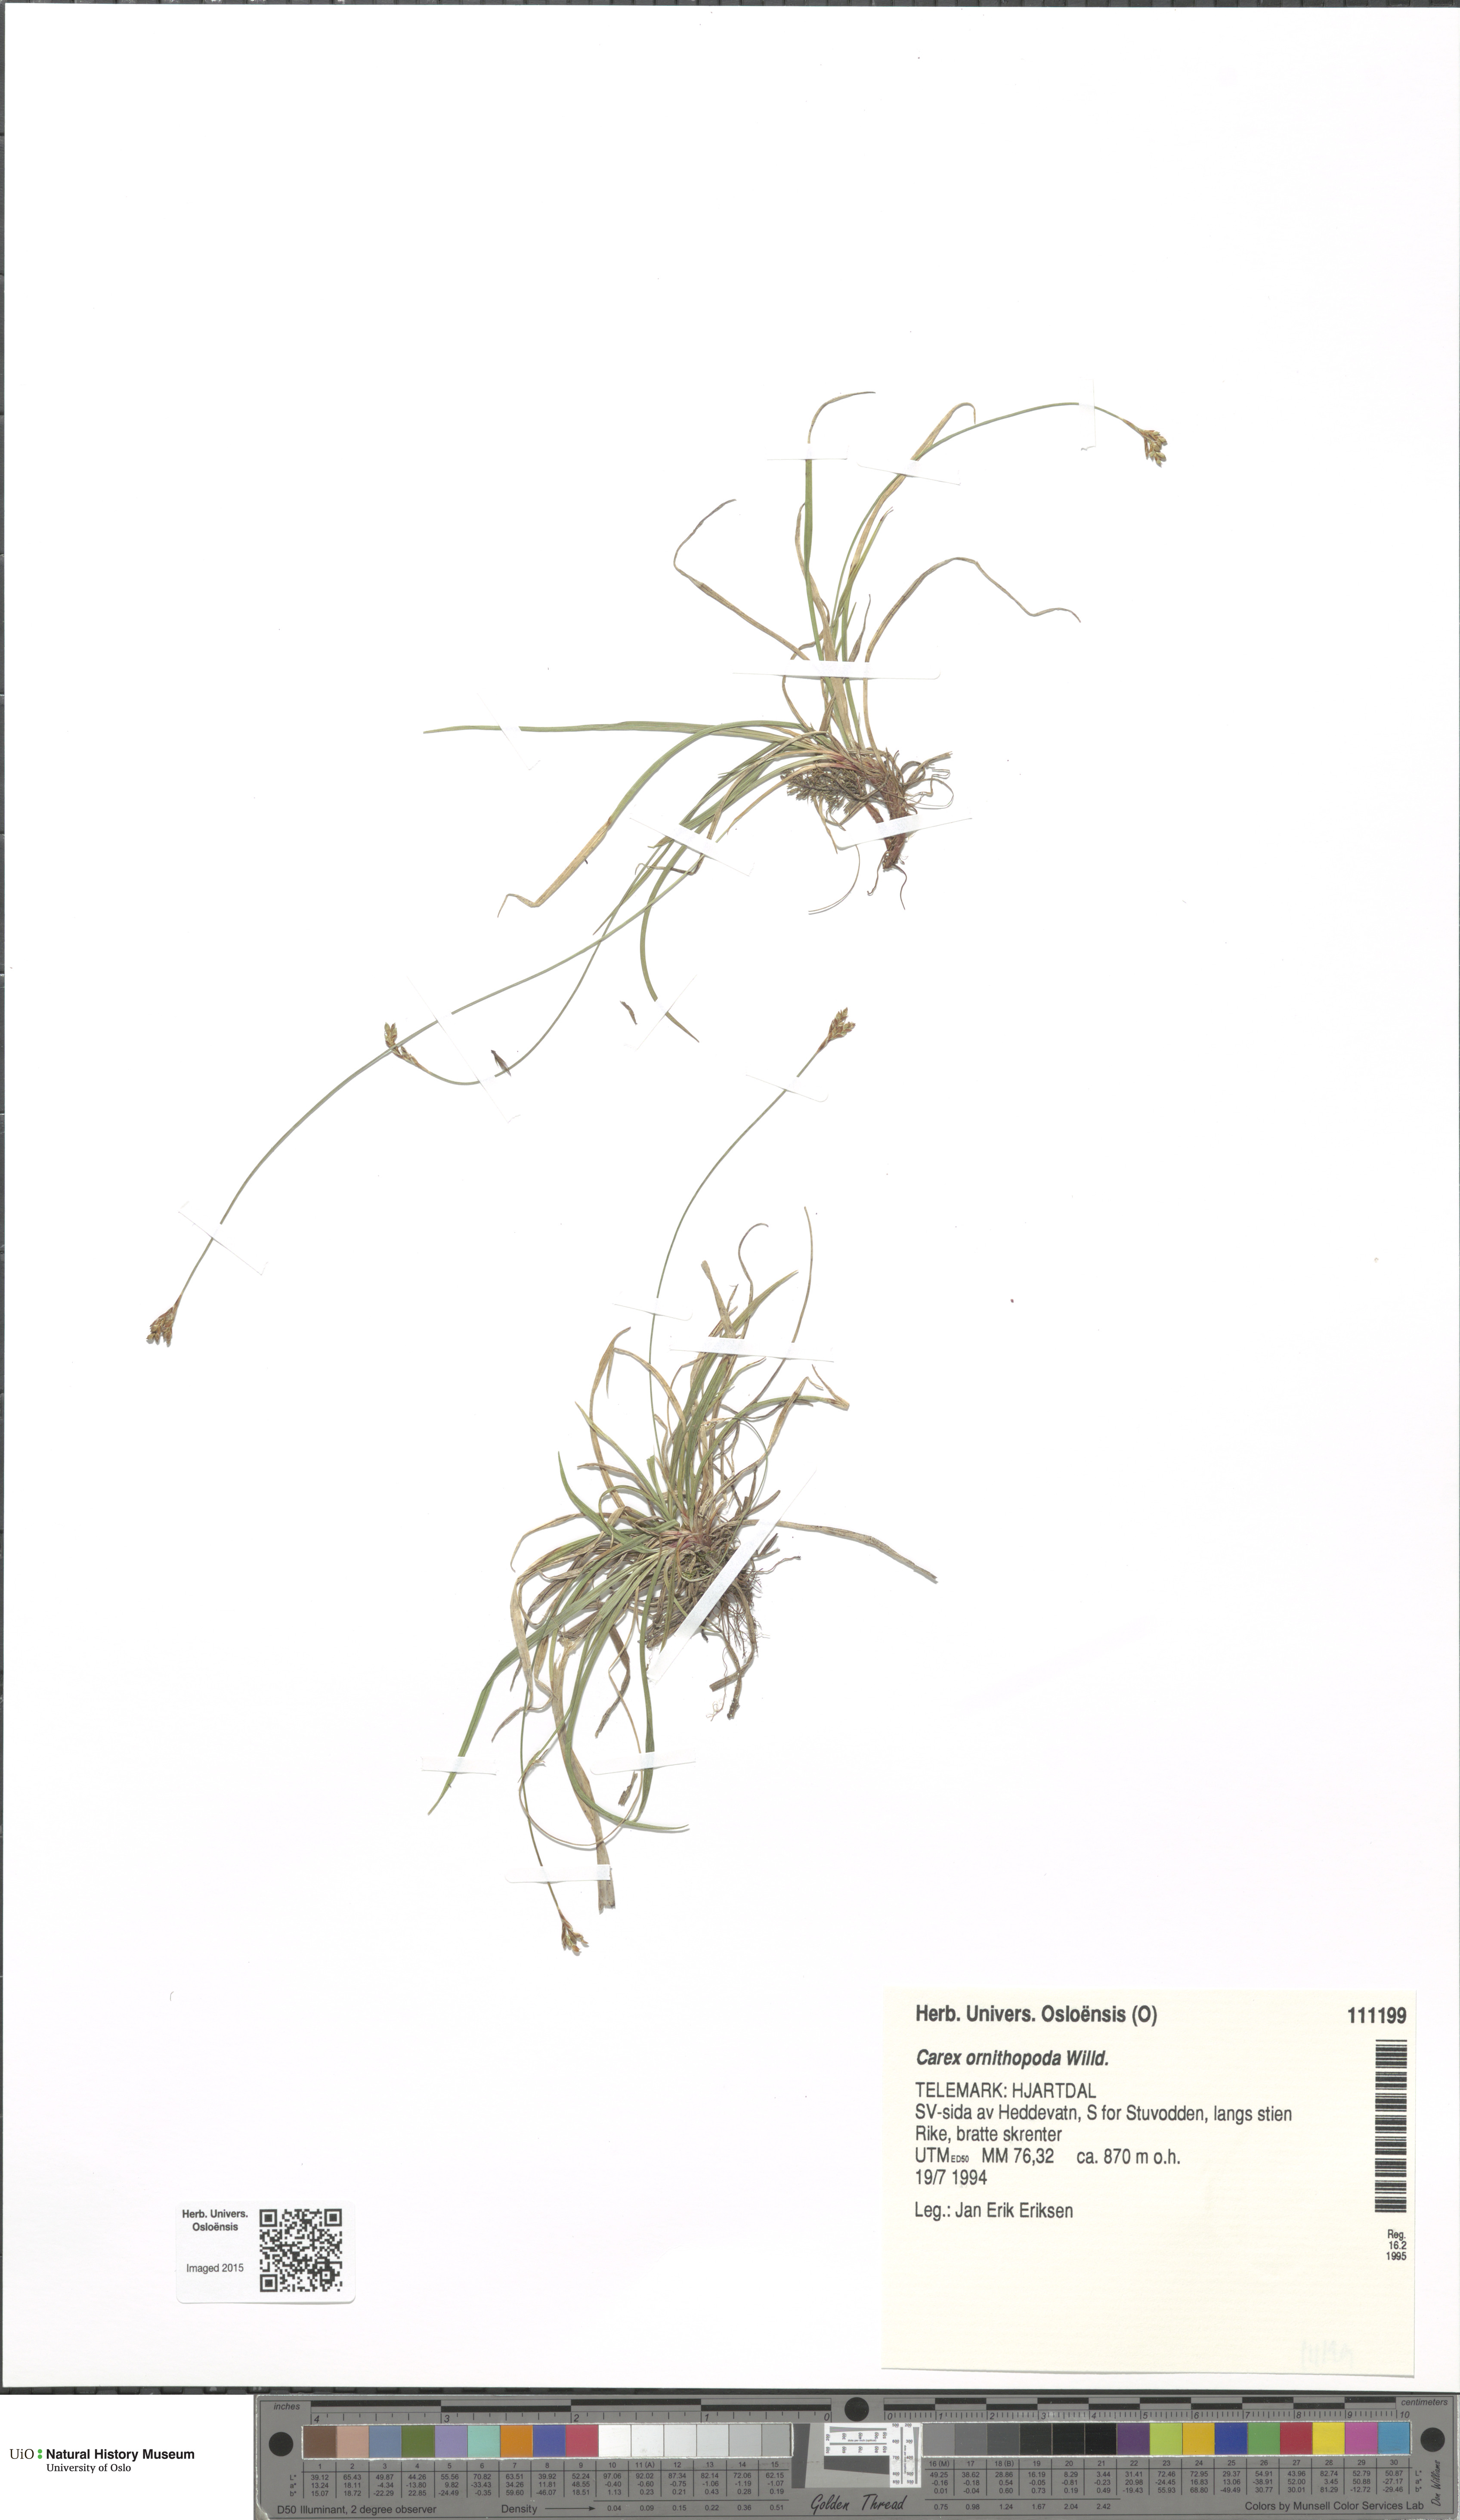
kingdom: Plantae
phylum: Tracheophyta
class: Liliopsida
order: Poales
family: Cyperaceae
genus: Carex
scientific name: Carex ornithopoda
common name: Bird's-foot sedge
